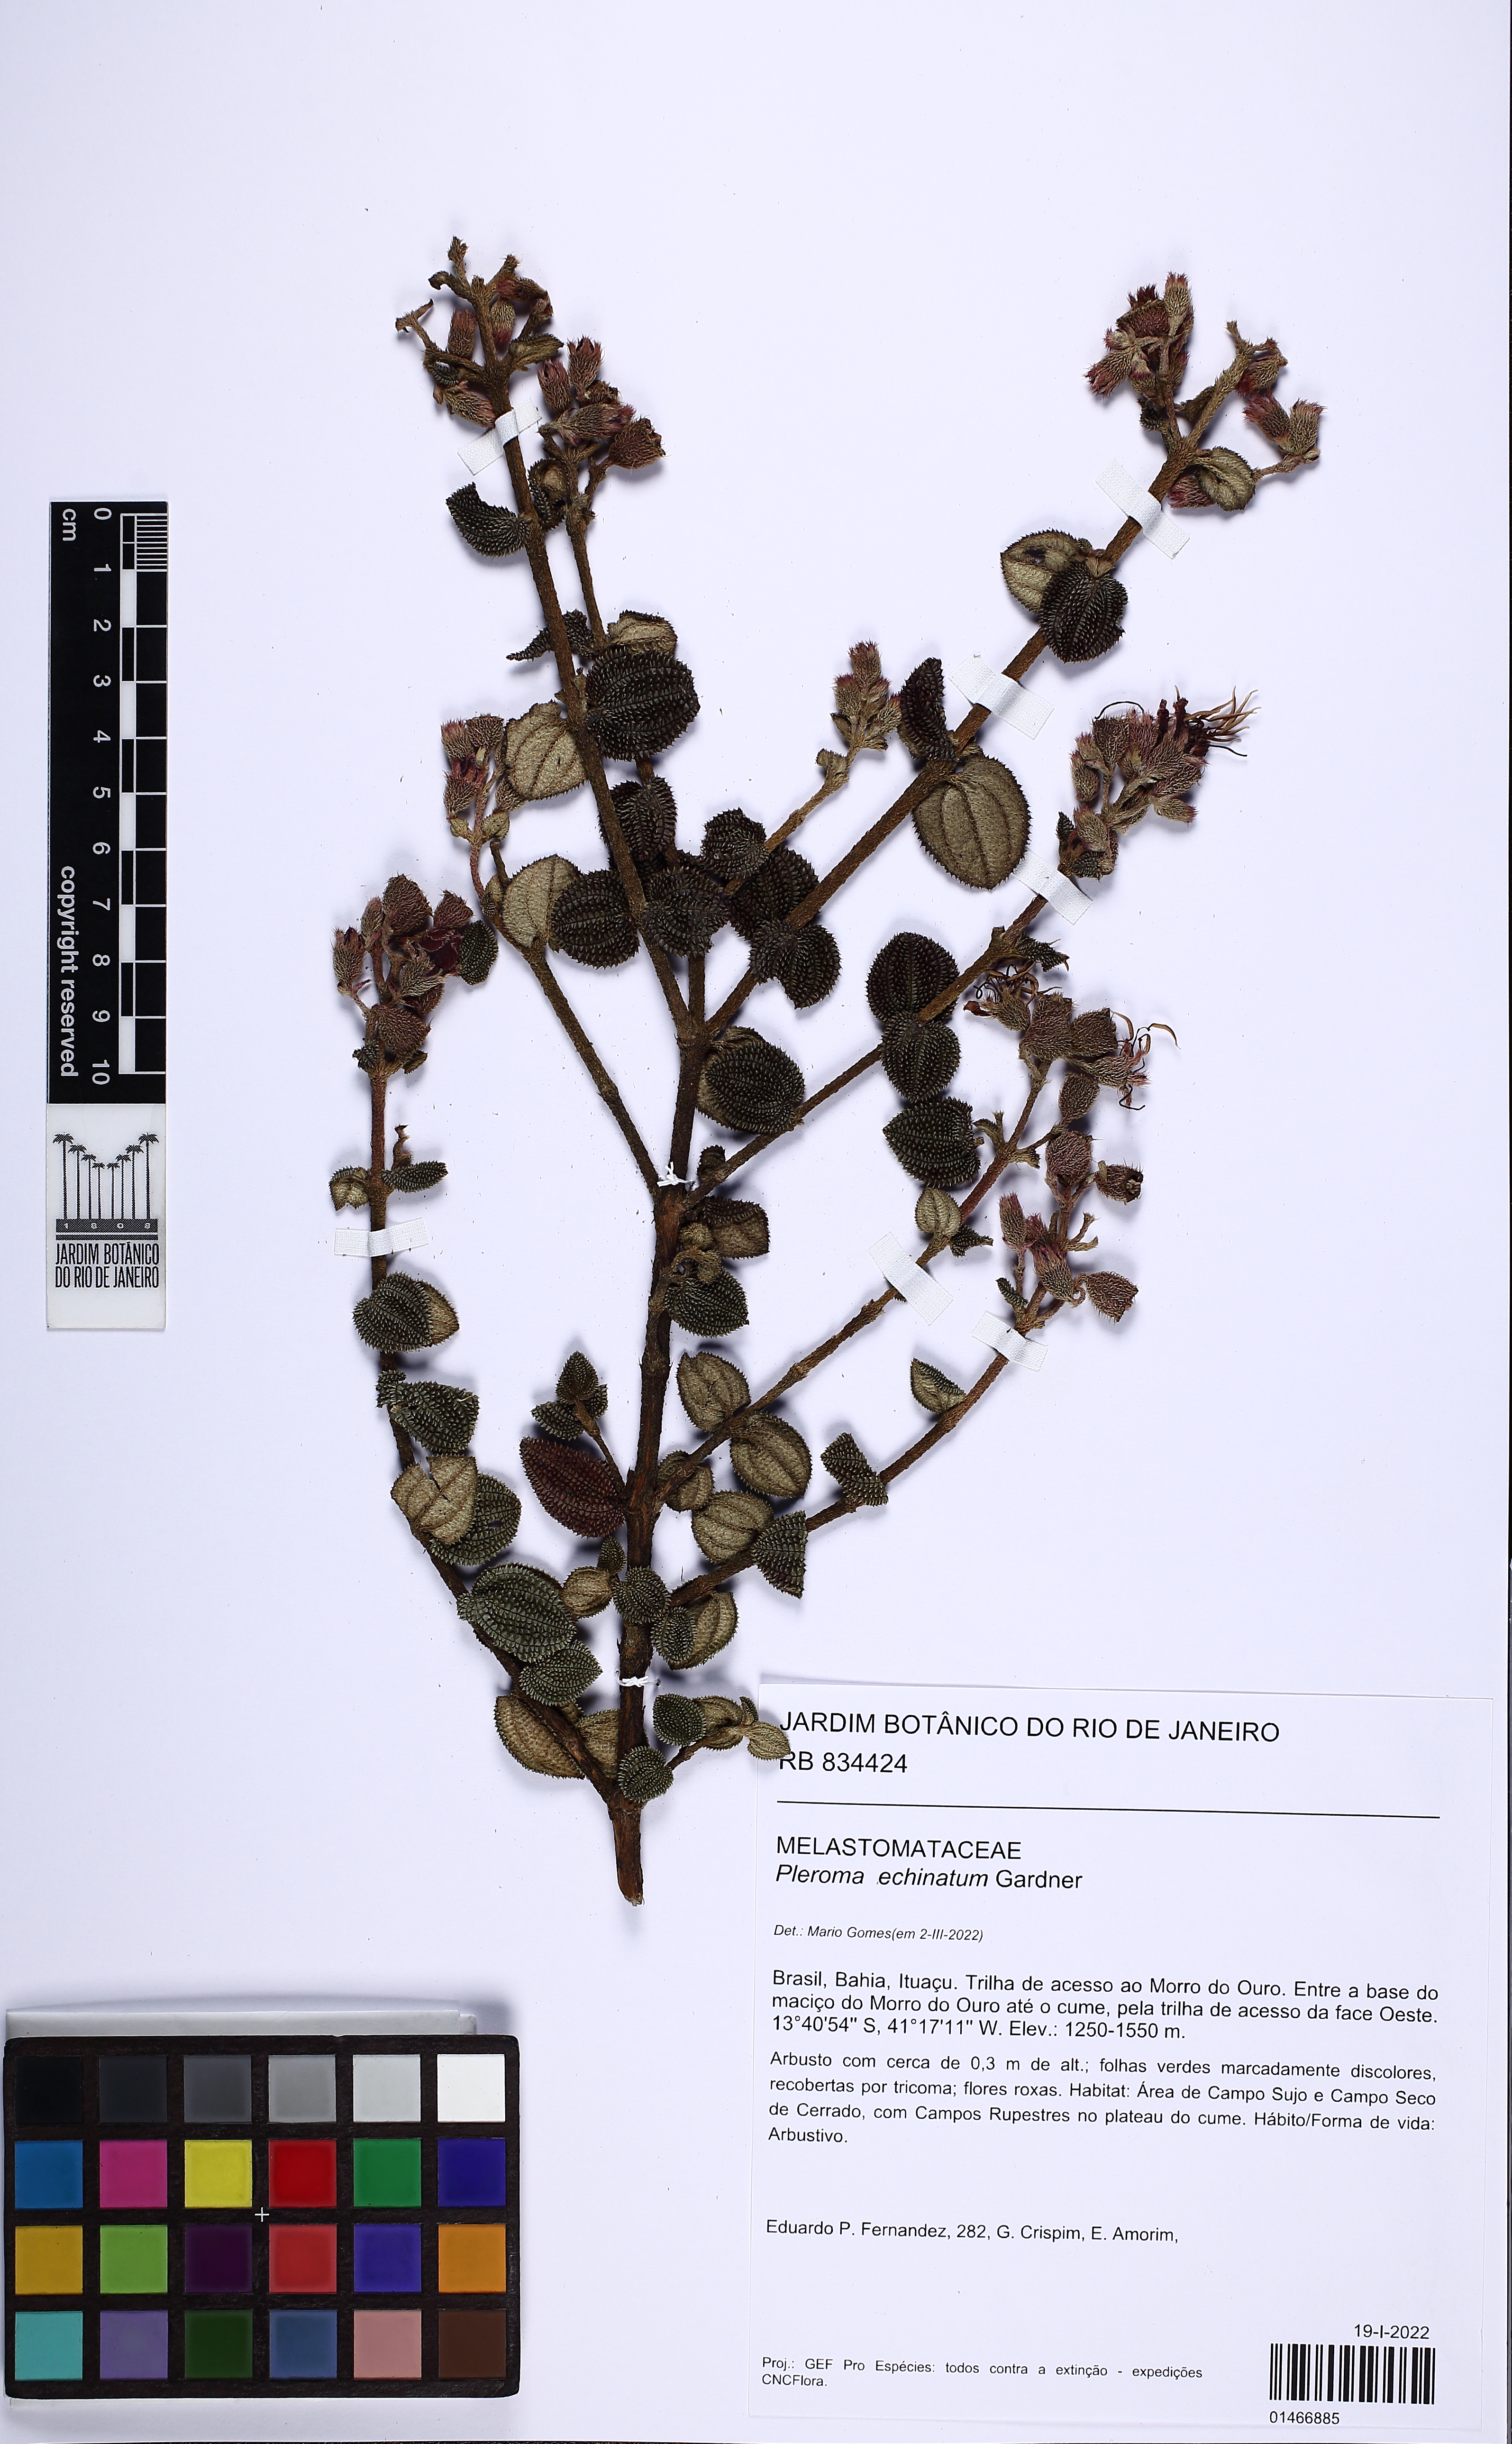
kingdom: Plantae
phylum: Tracheophyta
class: Magnoliopsida
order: Myrtales
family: Melastomataceae
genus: Pleroma
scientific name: Pleroma echinatum
